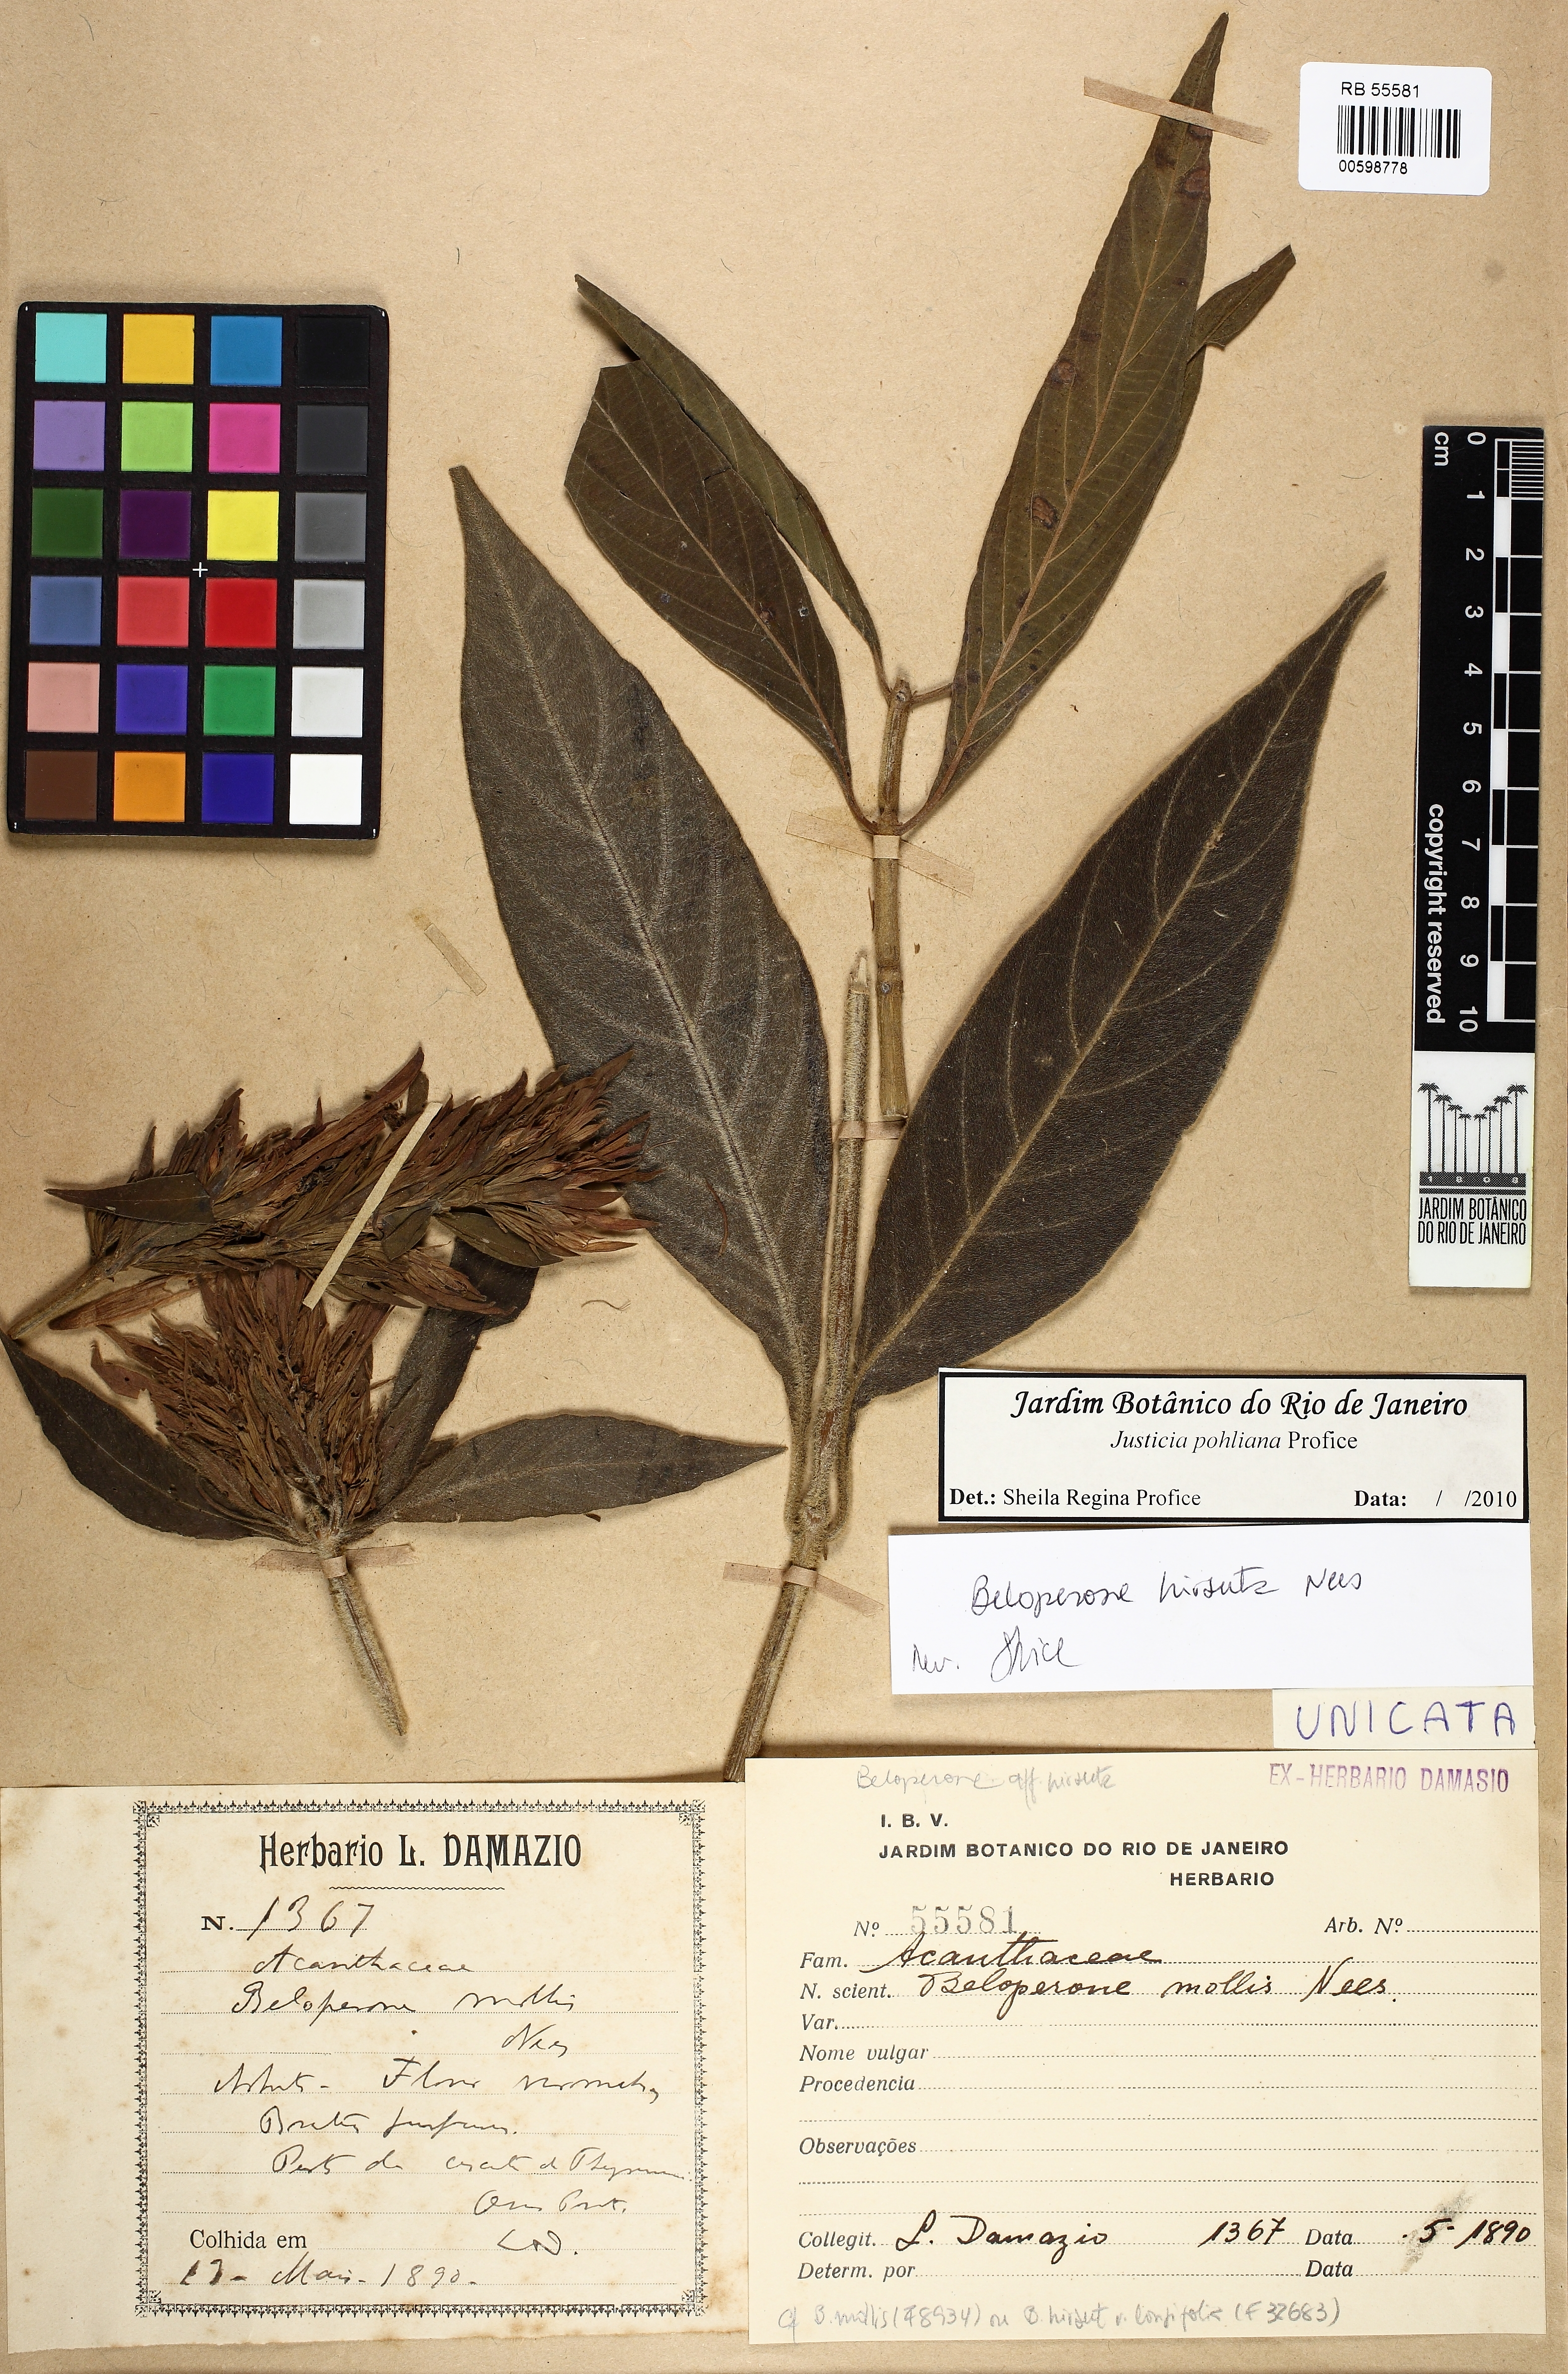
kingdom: Plantae
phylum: Tracheophyta
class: Magnoliopsida
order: Lamiales
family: Acanthaceae
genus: Justicia
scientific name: Justicia pohliana
